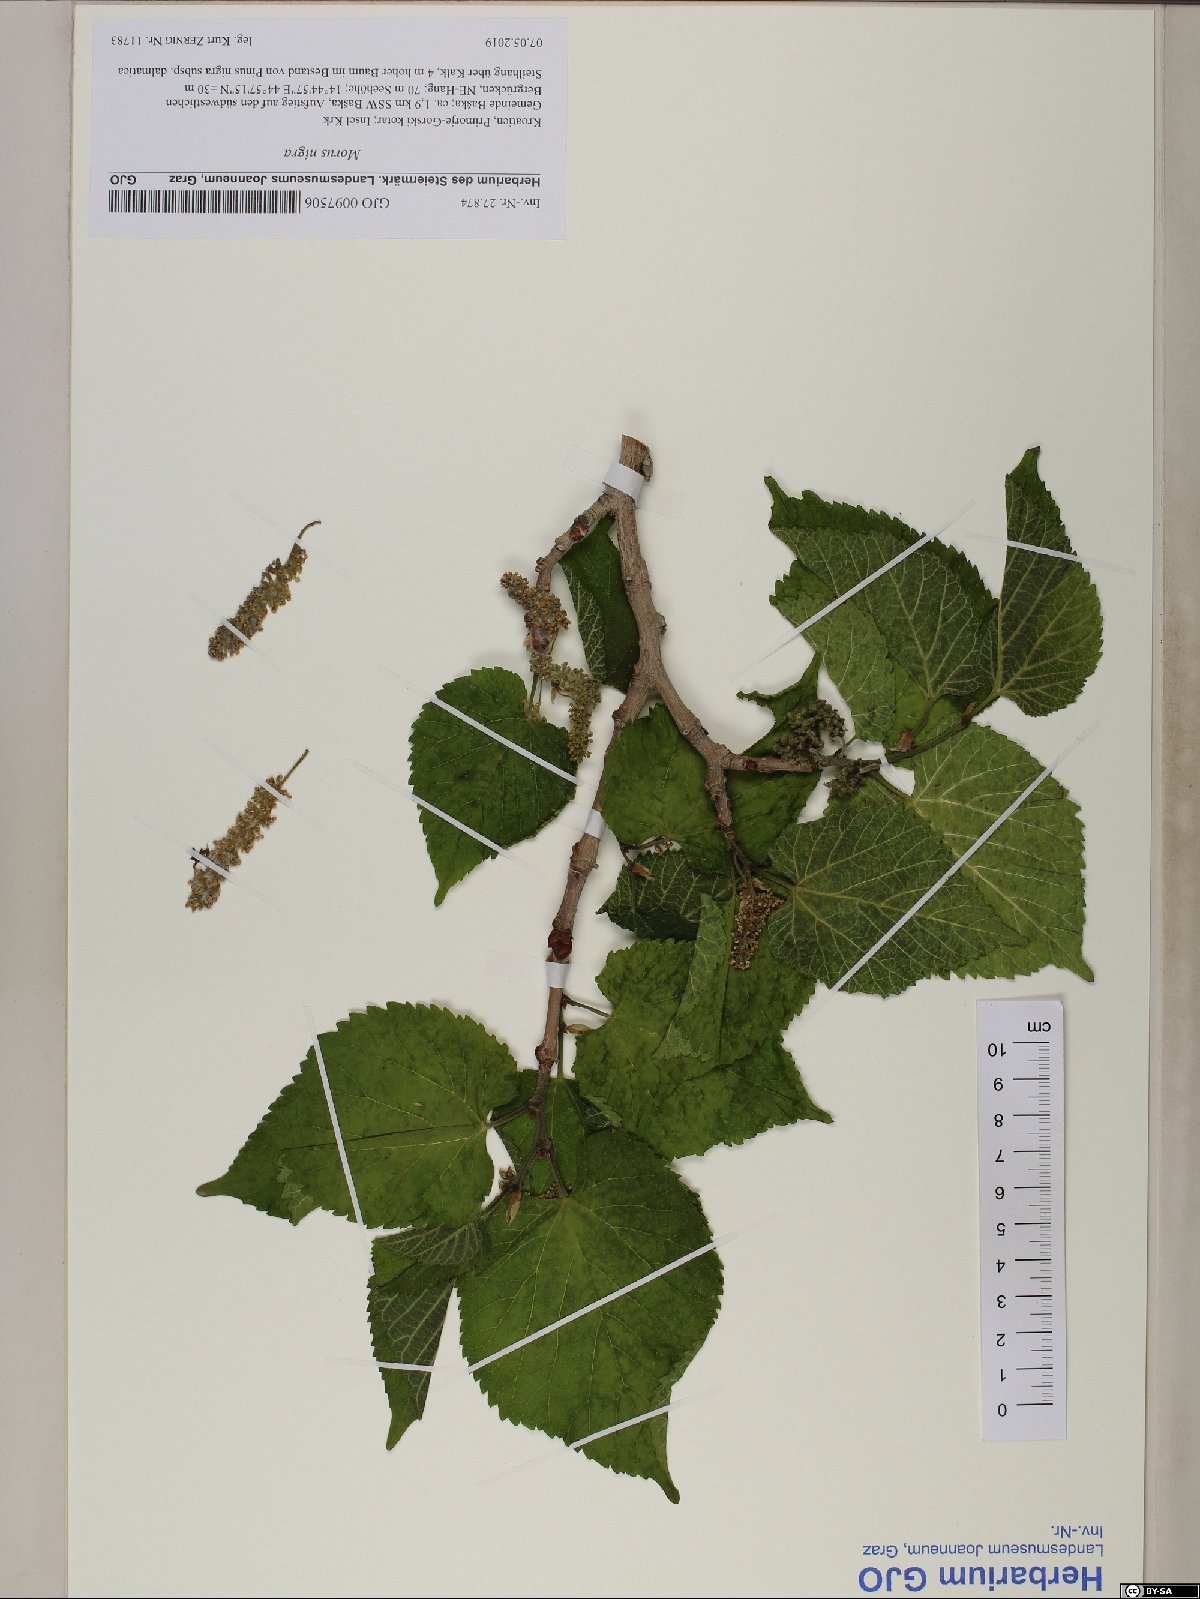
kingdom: Plantae
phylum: Tracheophyta
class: Magnoliopsida
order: Rosales
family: Moraceae
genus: Morus
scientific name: Morus nigra
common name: Black mulberry
